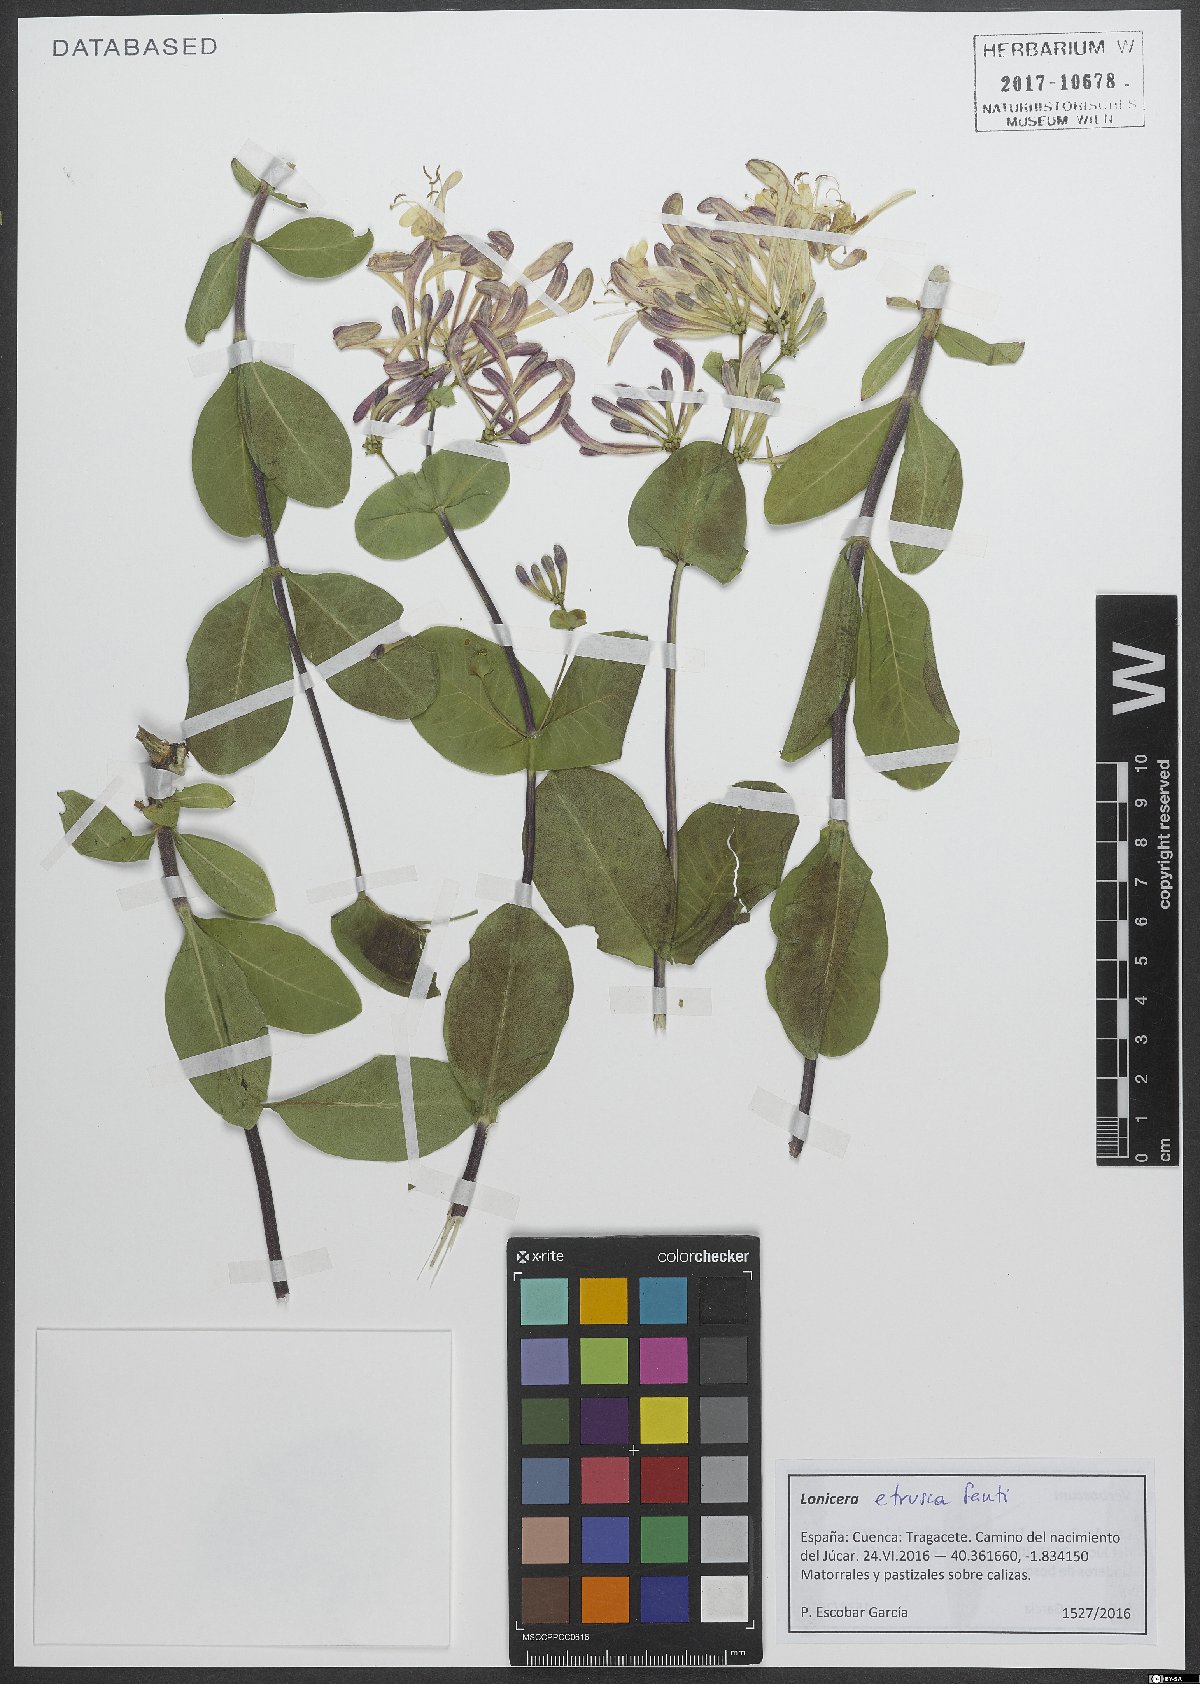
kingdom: Plantae
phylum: Tracheophyta
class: Magnoliopsida
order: Dipsacales
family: Caprifoliaceae
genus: Lonicera
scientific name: Lonicera etrusca
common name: Etruscan honeysuckle
